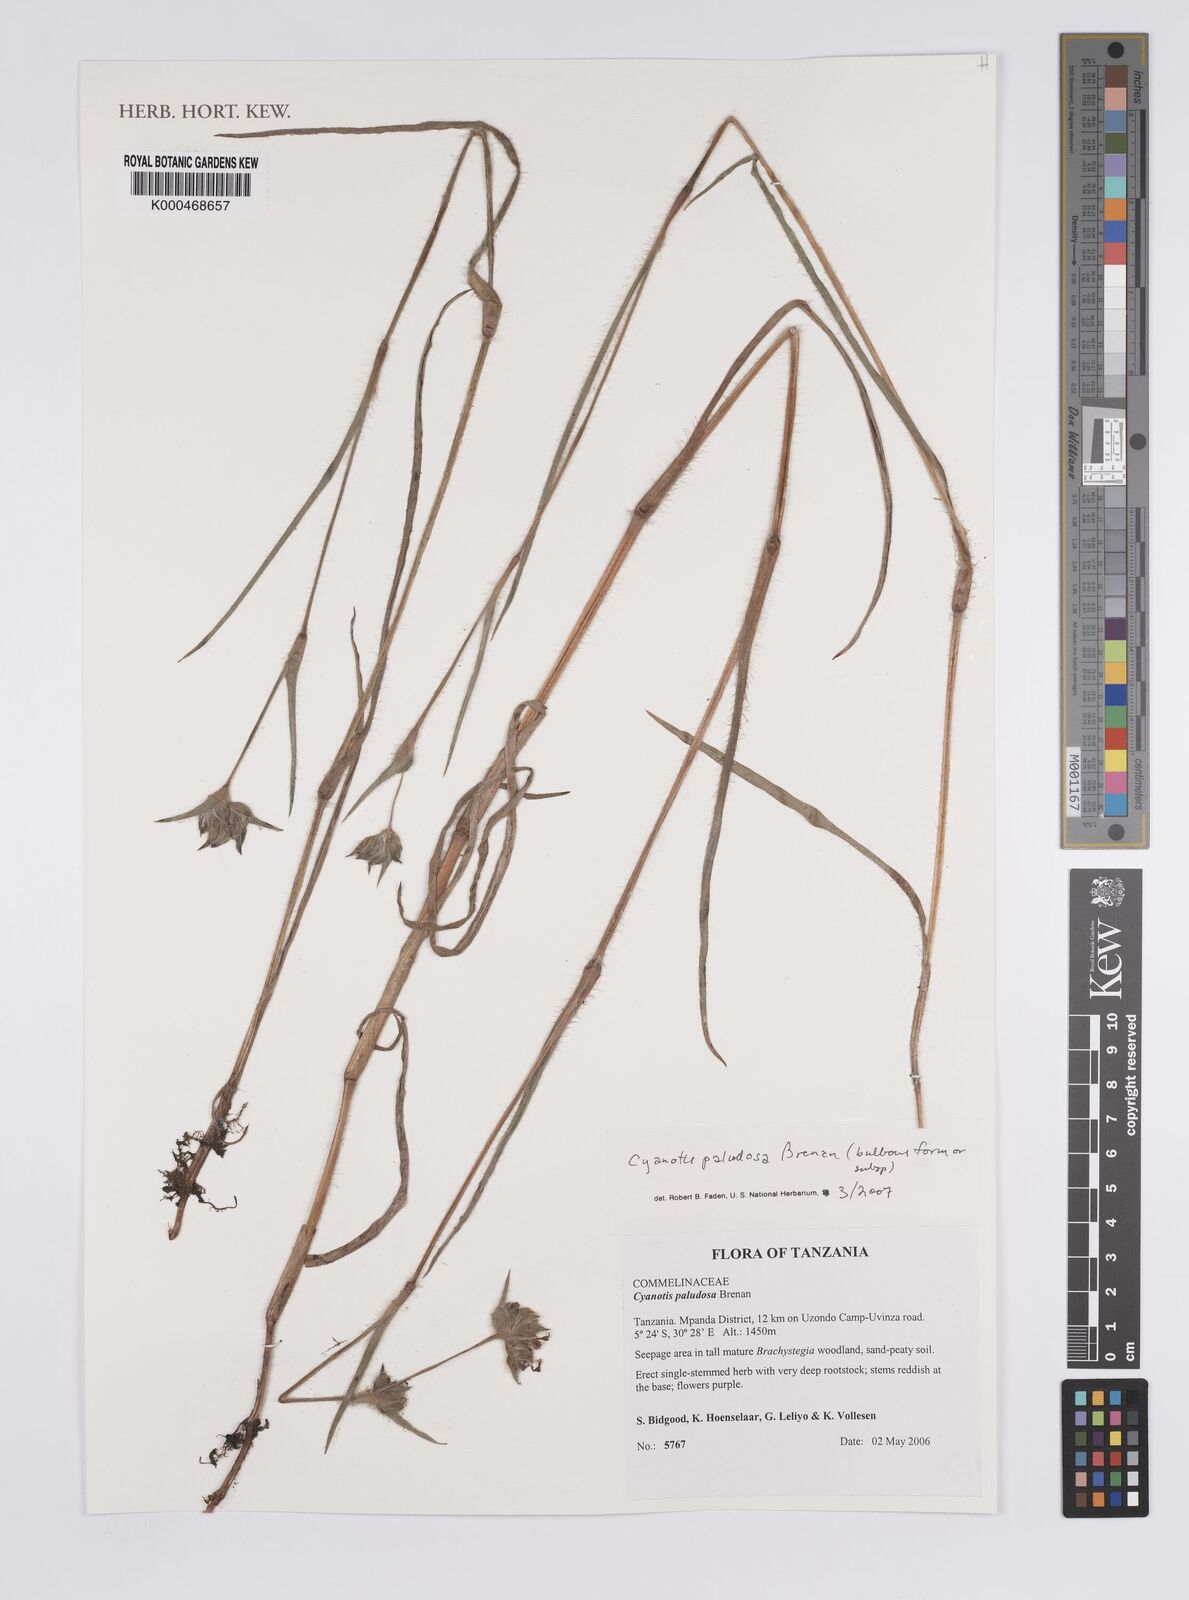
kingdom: Plantae
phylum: Tracheophyta
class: Liliopsida
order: Commelinales
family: Commelinaceae
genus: Cyanotis
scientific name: Cyanotis paludosa
